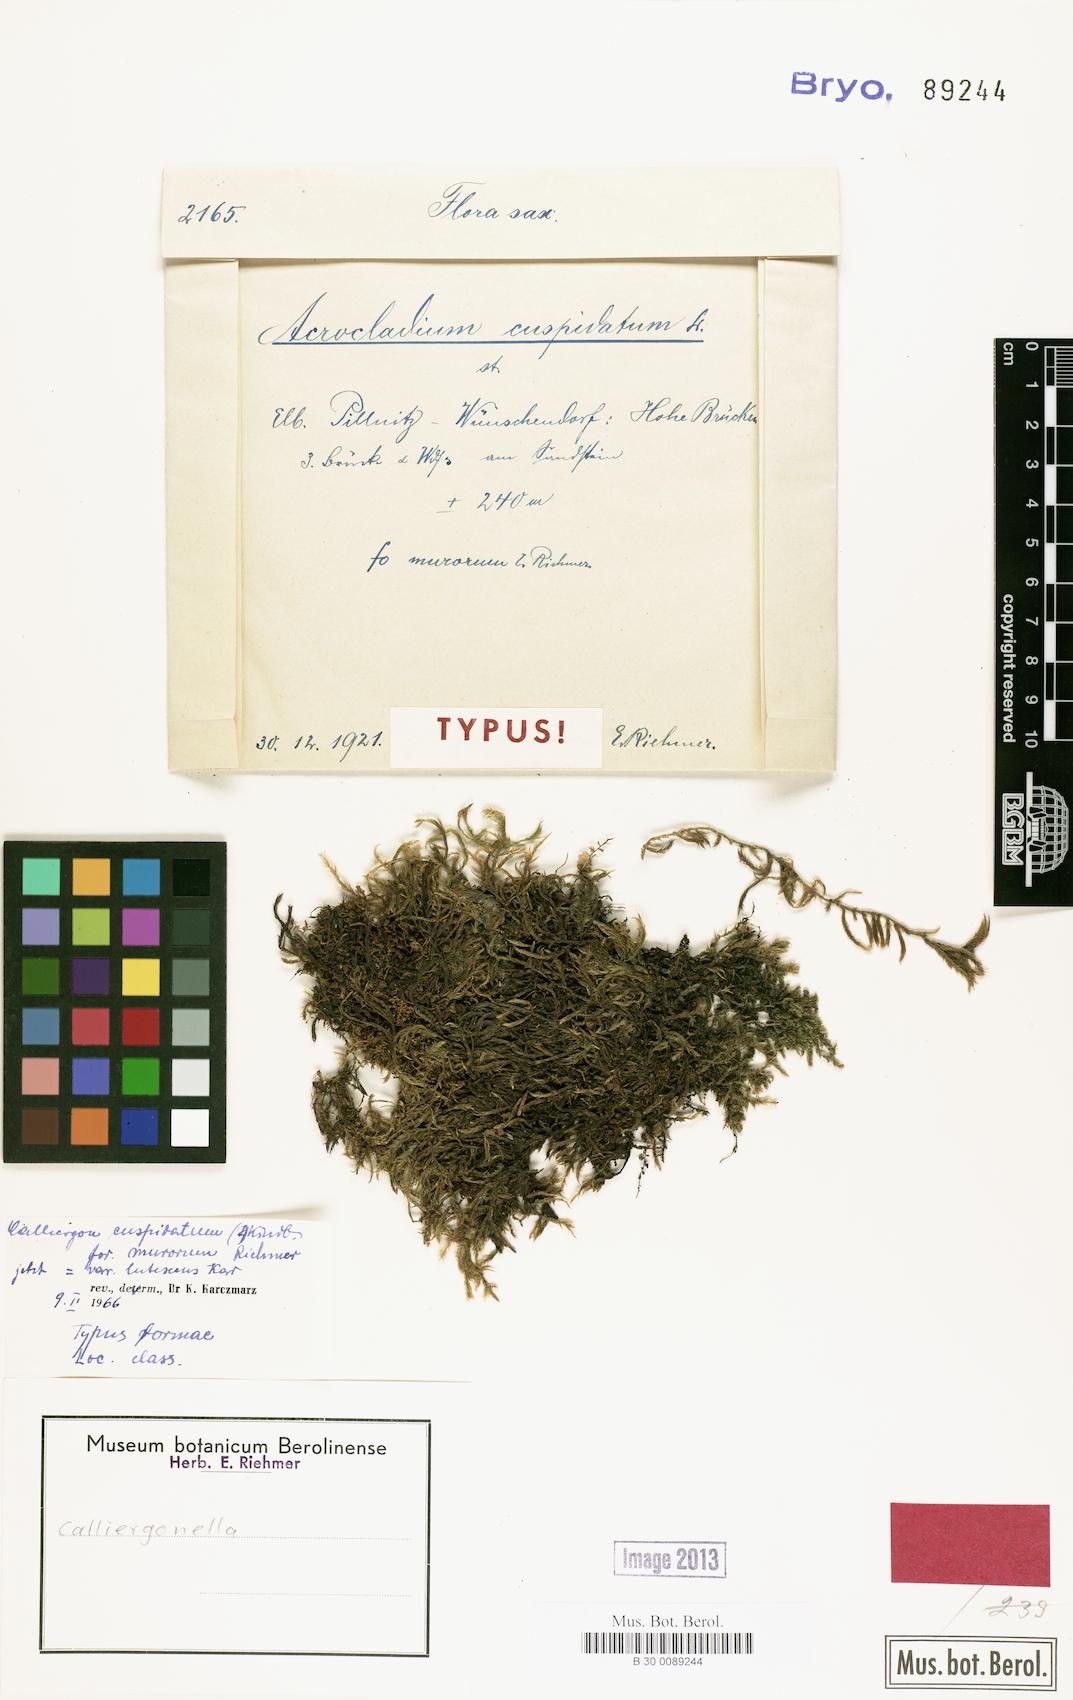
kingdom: Plantae
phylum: Bryophyta
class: Bryopsida
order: Hypnales
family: Pylaisiaceae
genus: Calliergonella
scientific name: Calliergonella cuspidata
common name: Common large wetland moss
